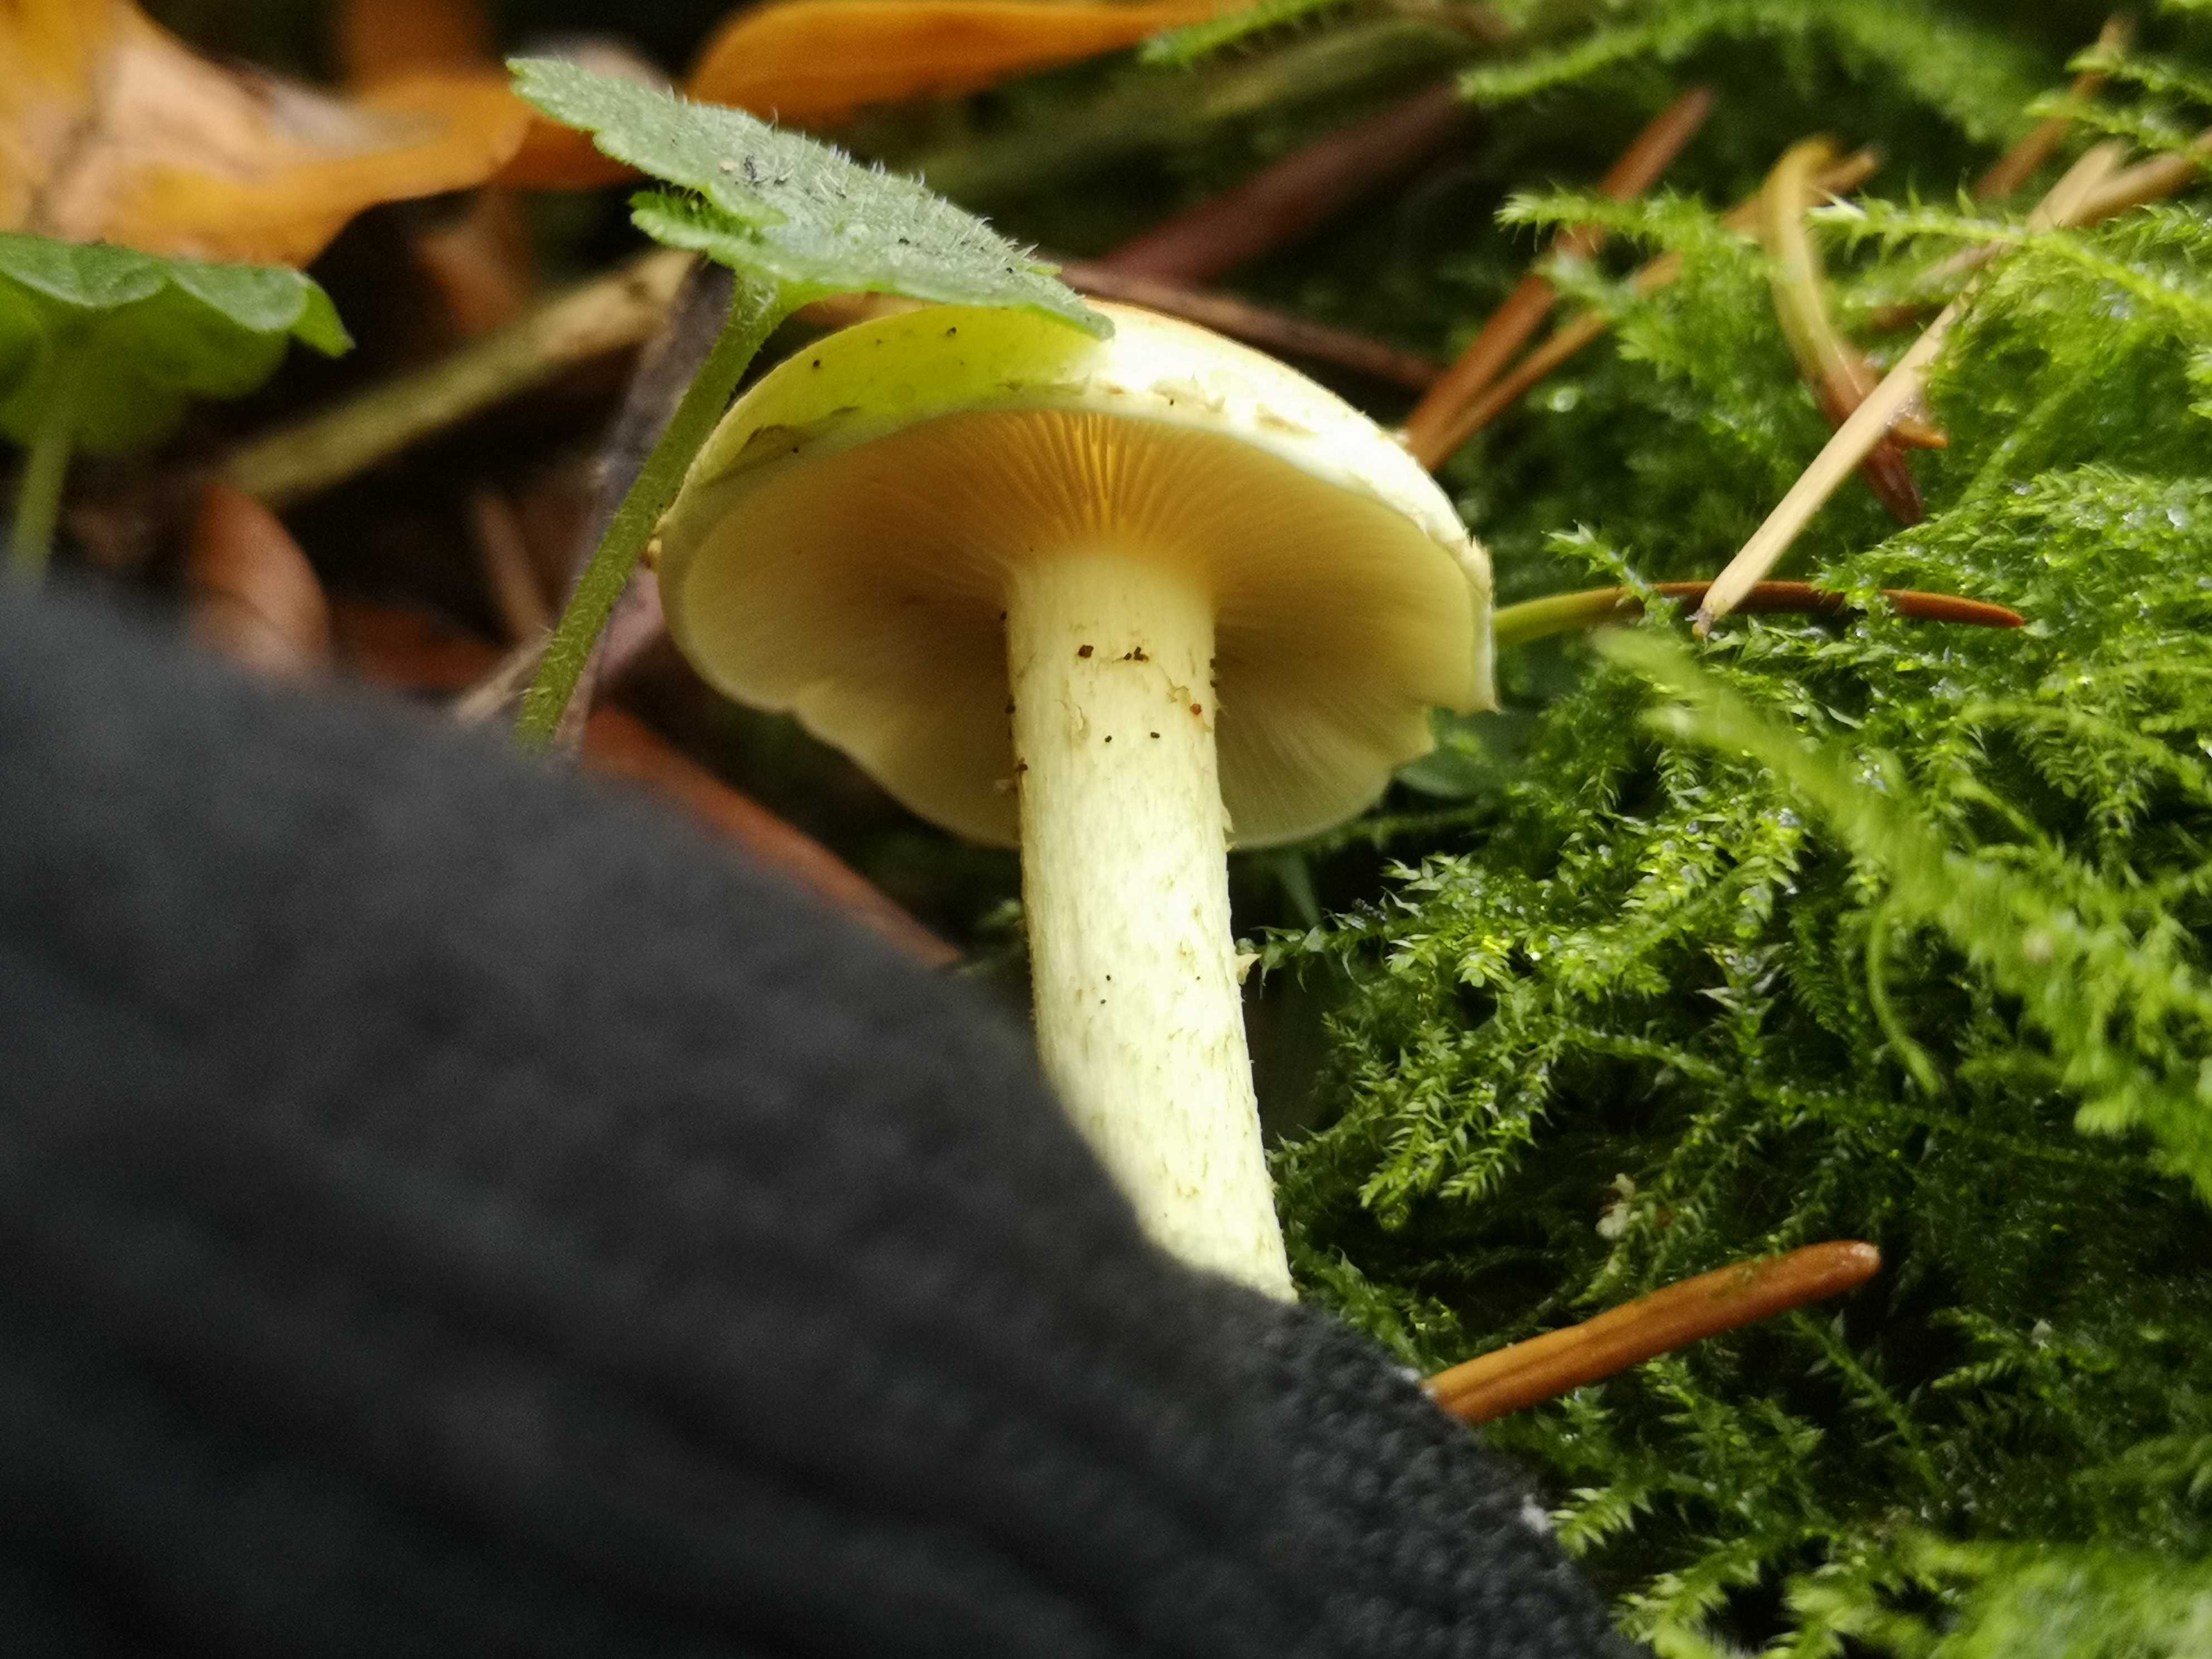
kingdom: Fungi
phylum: Basidiomycota
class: Agaricomycetes
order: Agaricales
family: Strophariaceae
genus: Hypholoma
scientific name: Hypholoma fasciculare
